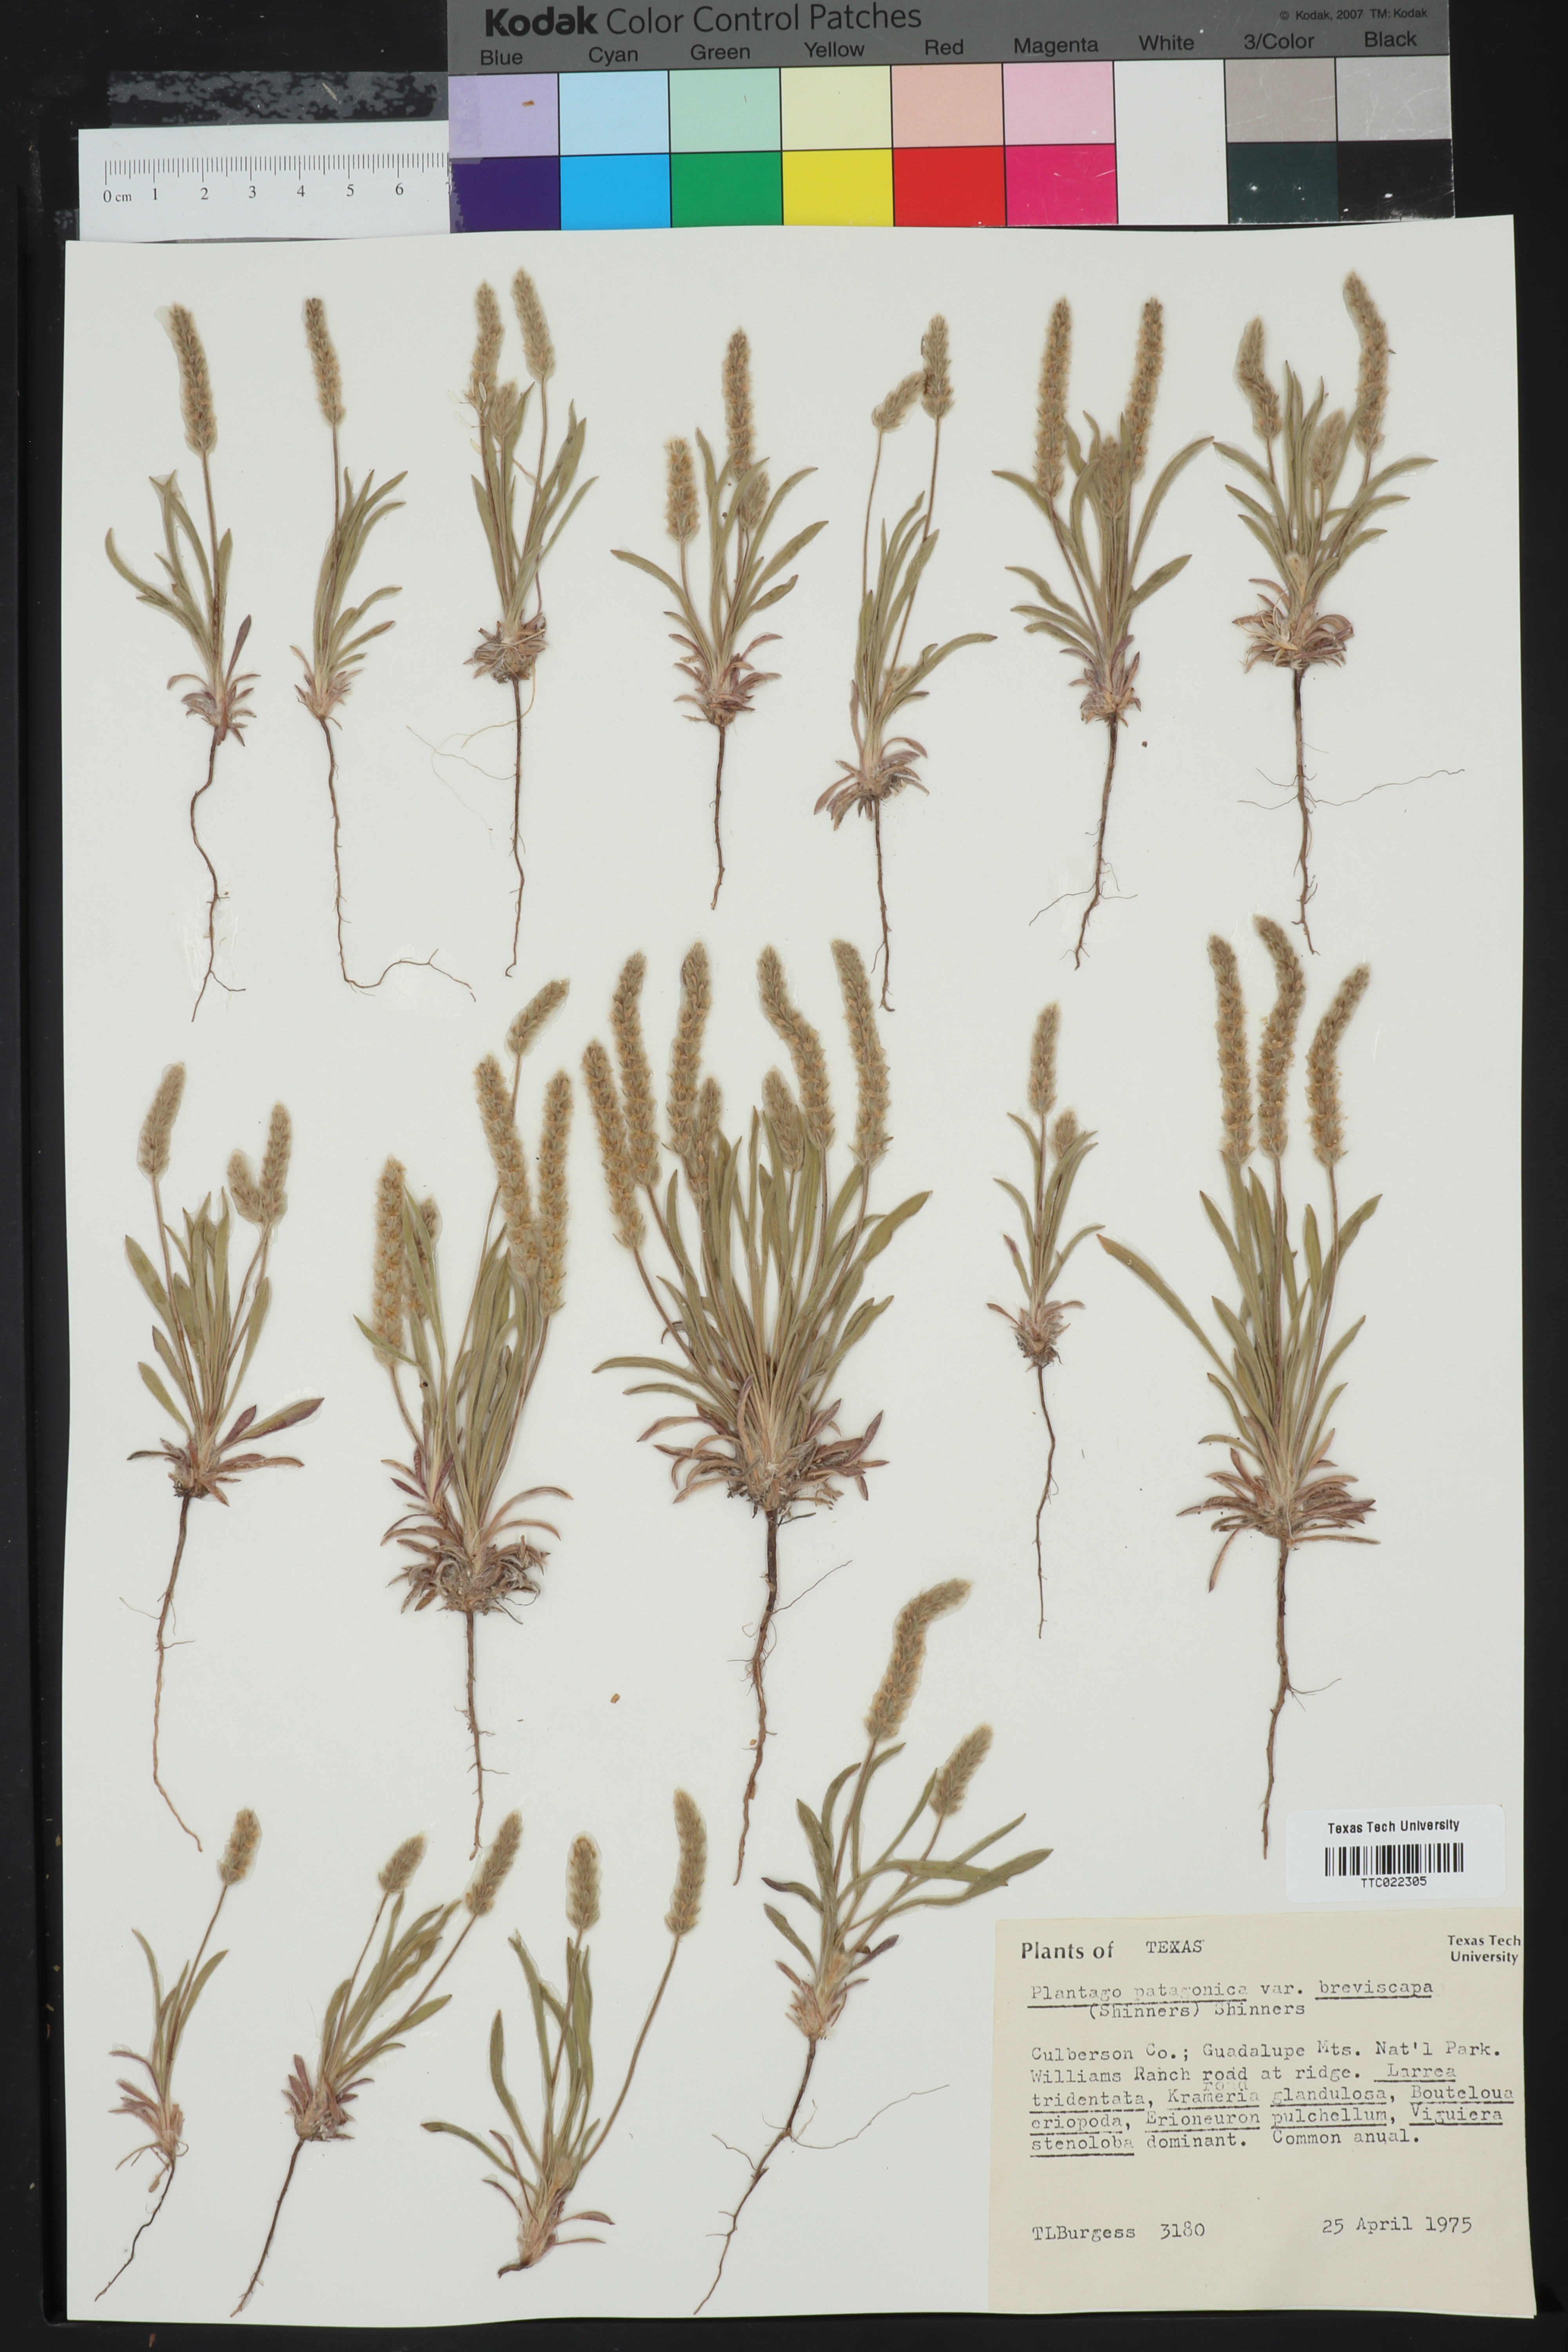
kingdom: Plantae
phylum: Tracheophyta
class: Magnoliopsida
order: Lamiales
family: Plantaginaceae
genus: Plantago
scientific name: Plantago patagonica
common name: Patagonia indian-wheat
